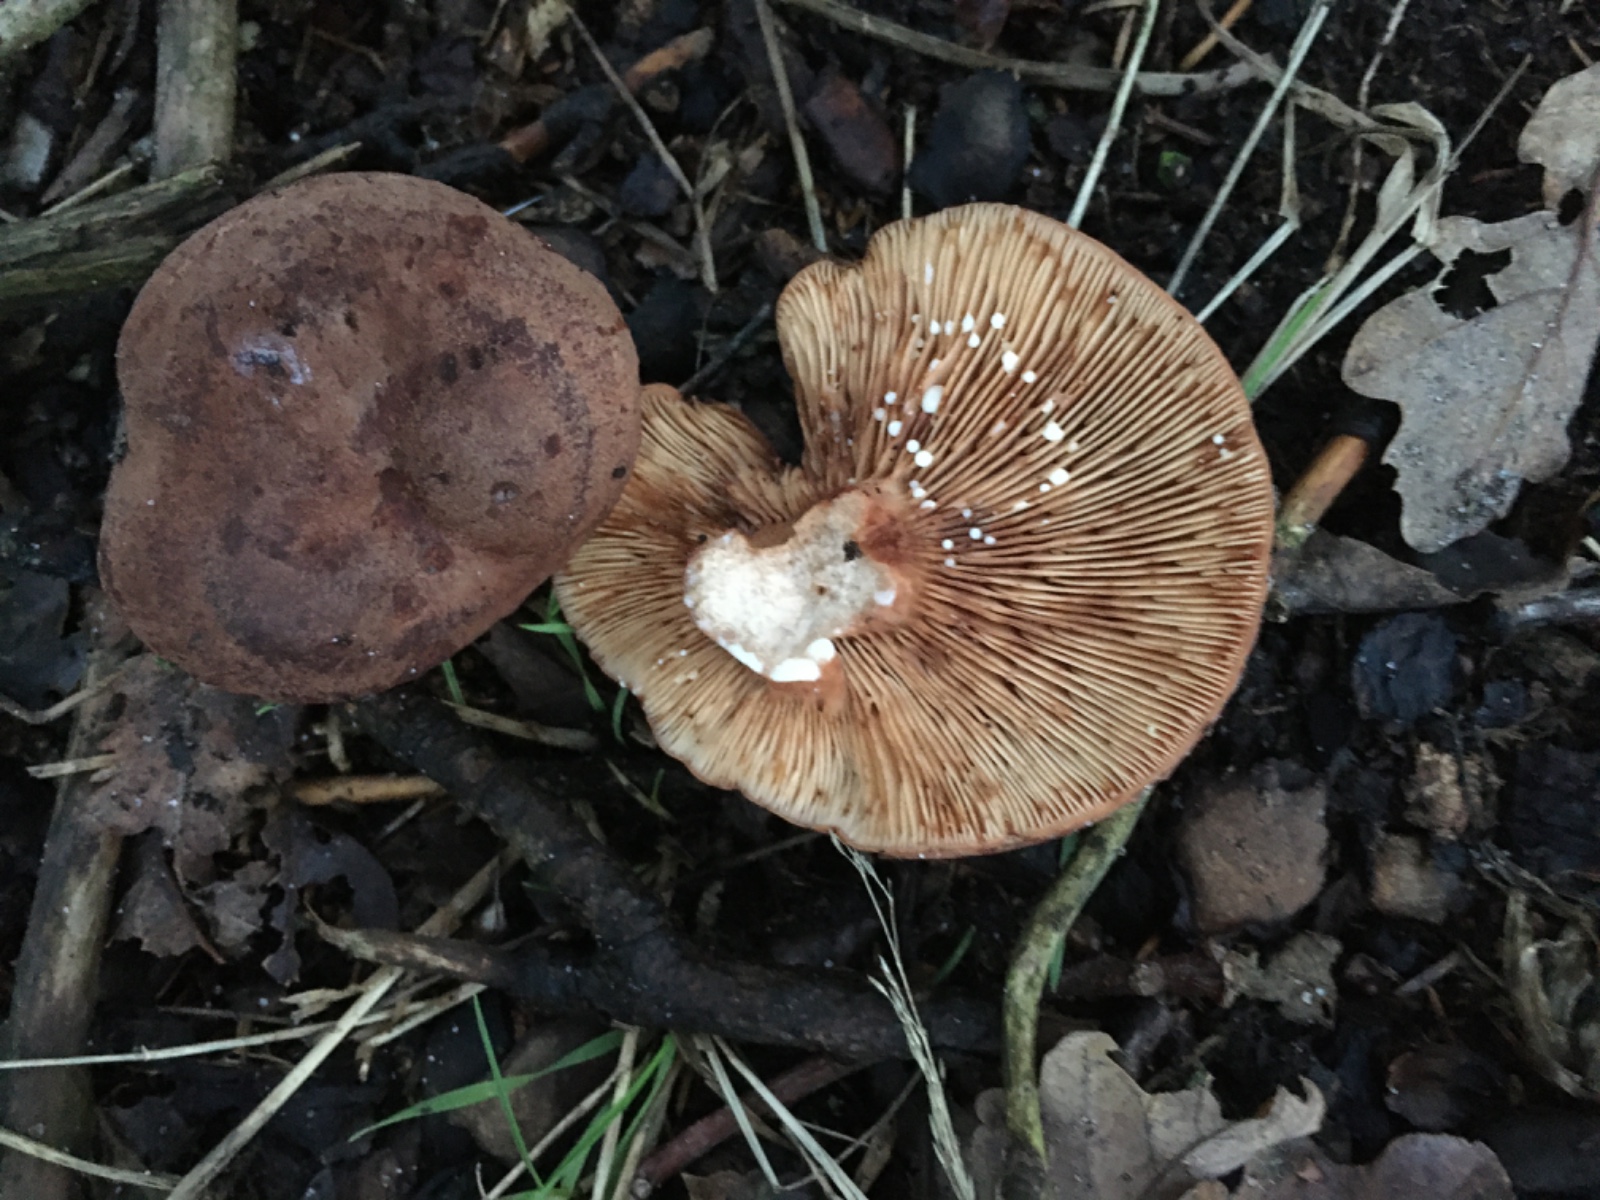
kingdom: Fungi
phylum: Basidiomycota
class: Agaricomycetes
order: Russulales
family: Russulaceae
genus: Lactarius
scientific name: Lactarius
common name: mælkehat
